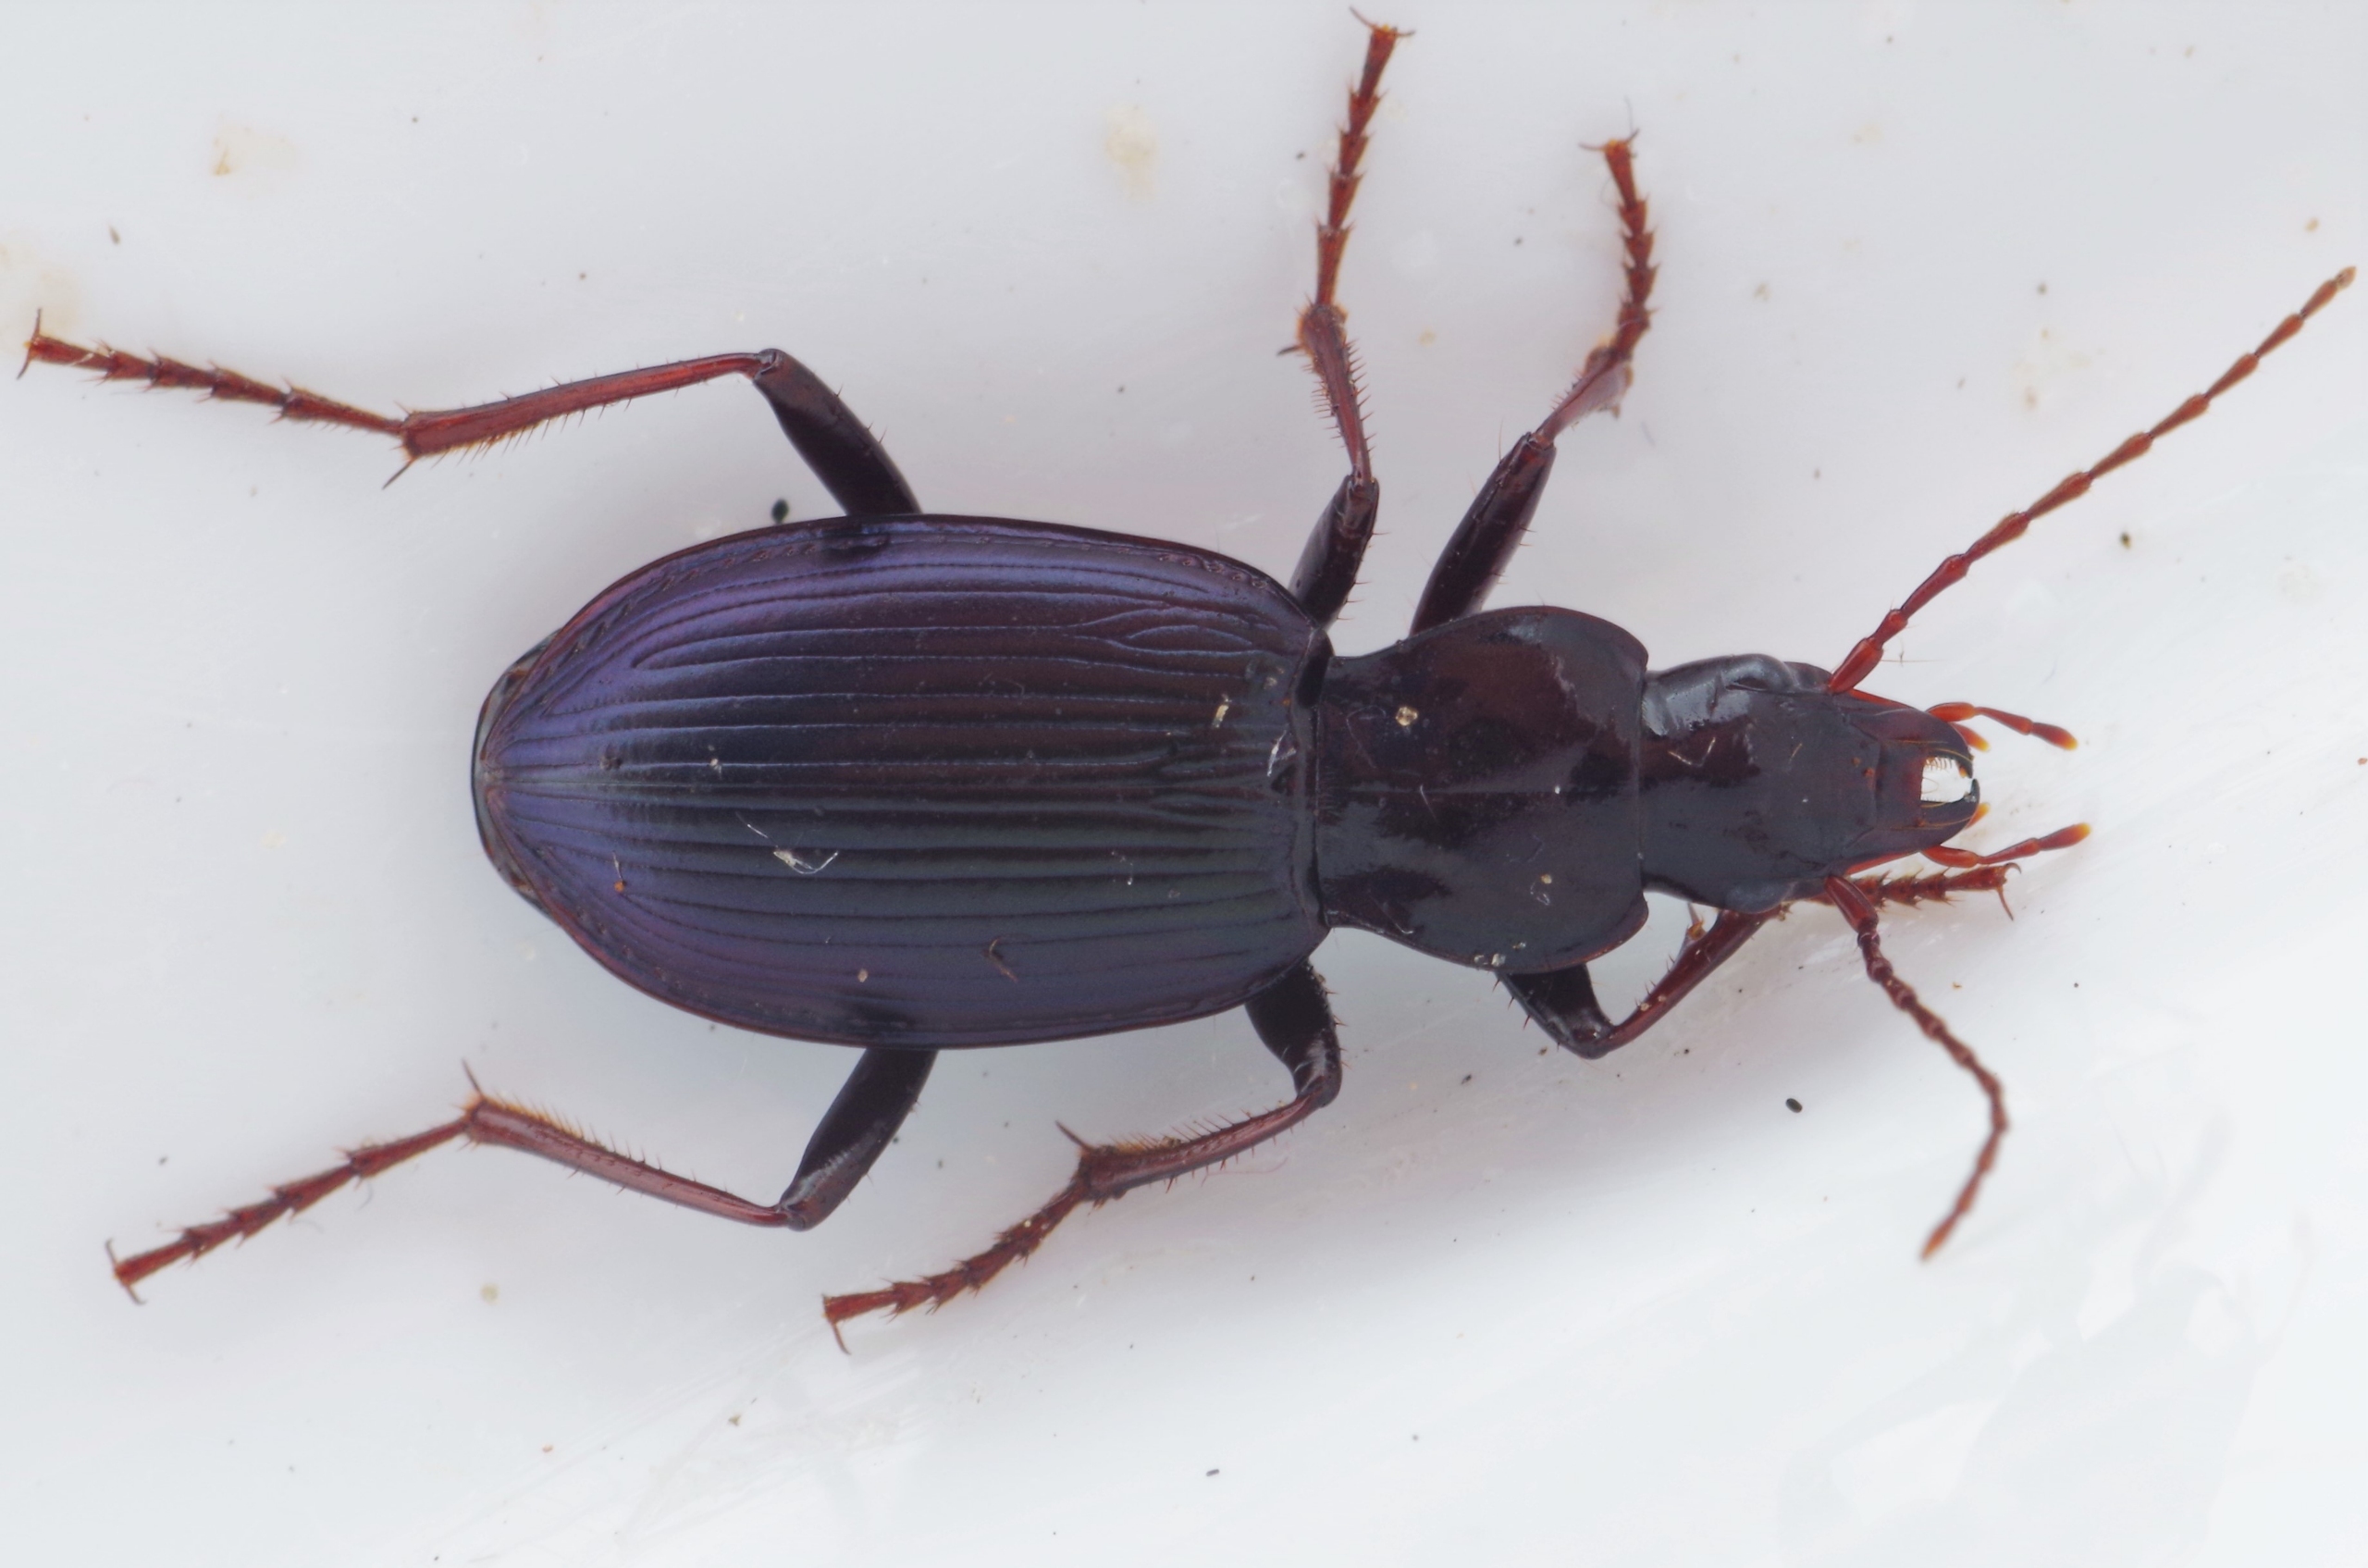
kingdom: Animalia
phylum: Arthropoda
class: Insecta
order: Coleoptera
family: Carabidae
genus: Laemostenus
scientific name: Laemostenus terricola
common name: Staldløber
